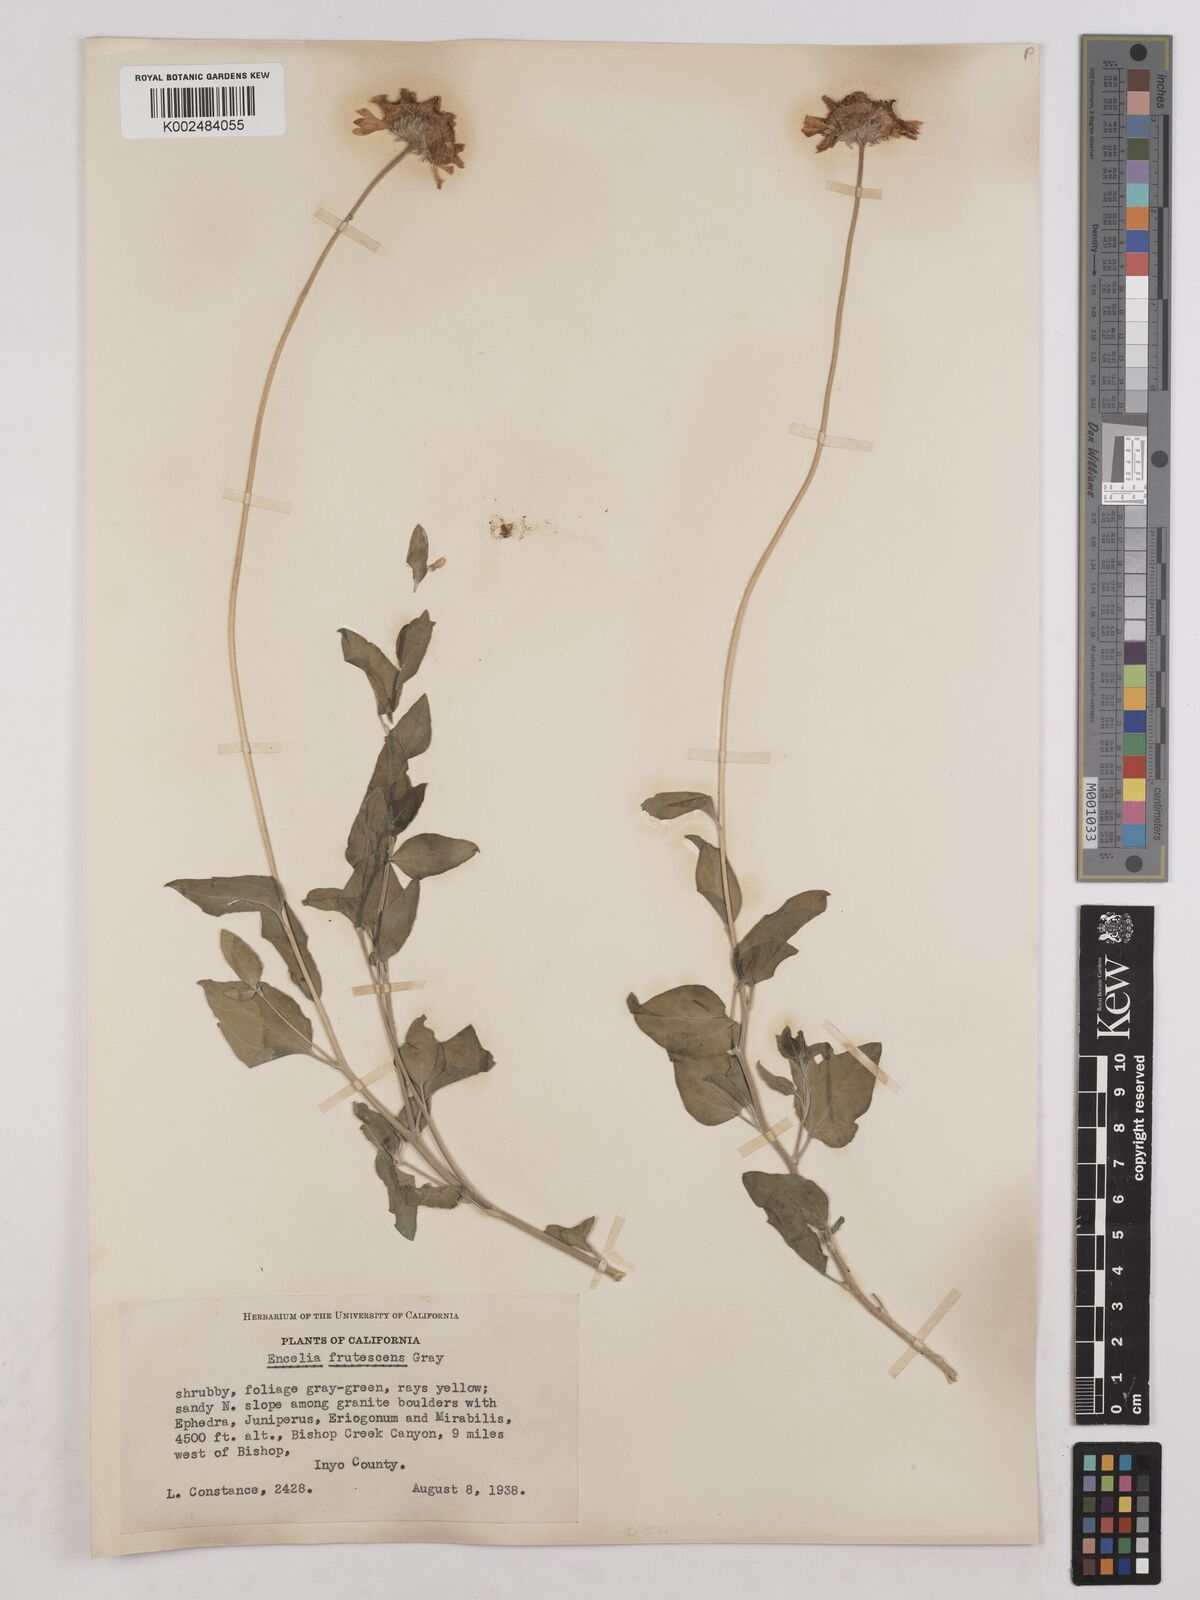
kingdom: Plantae
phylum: Tracheophyta
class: Magnoliopsida
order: Asterales
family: Asteraceae
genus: Encelia
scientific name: Encelia frutescens
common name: Bush encelia
